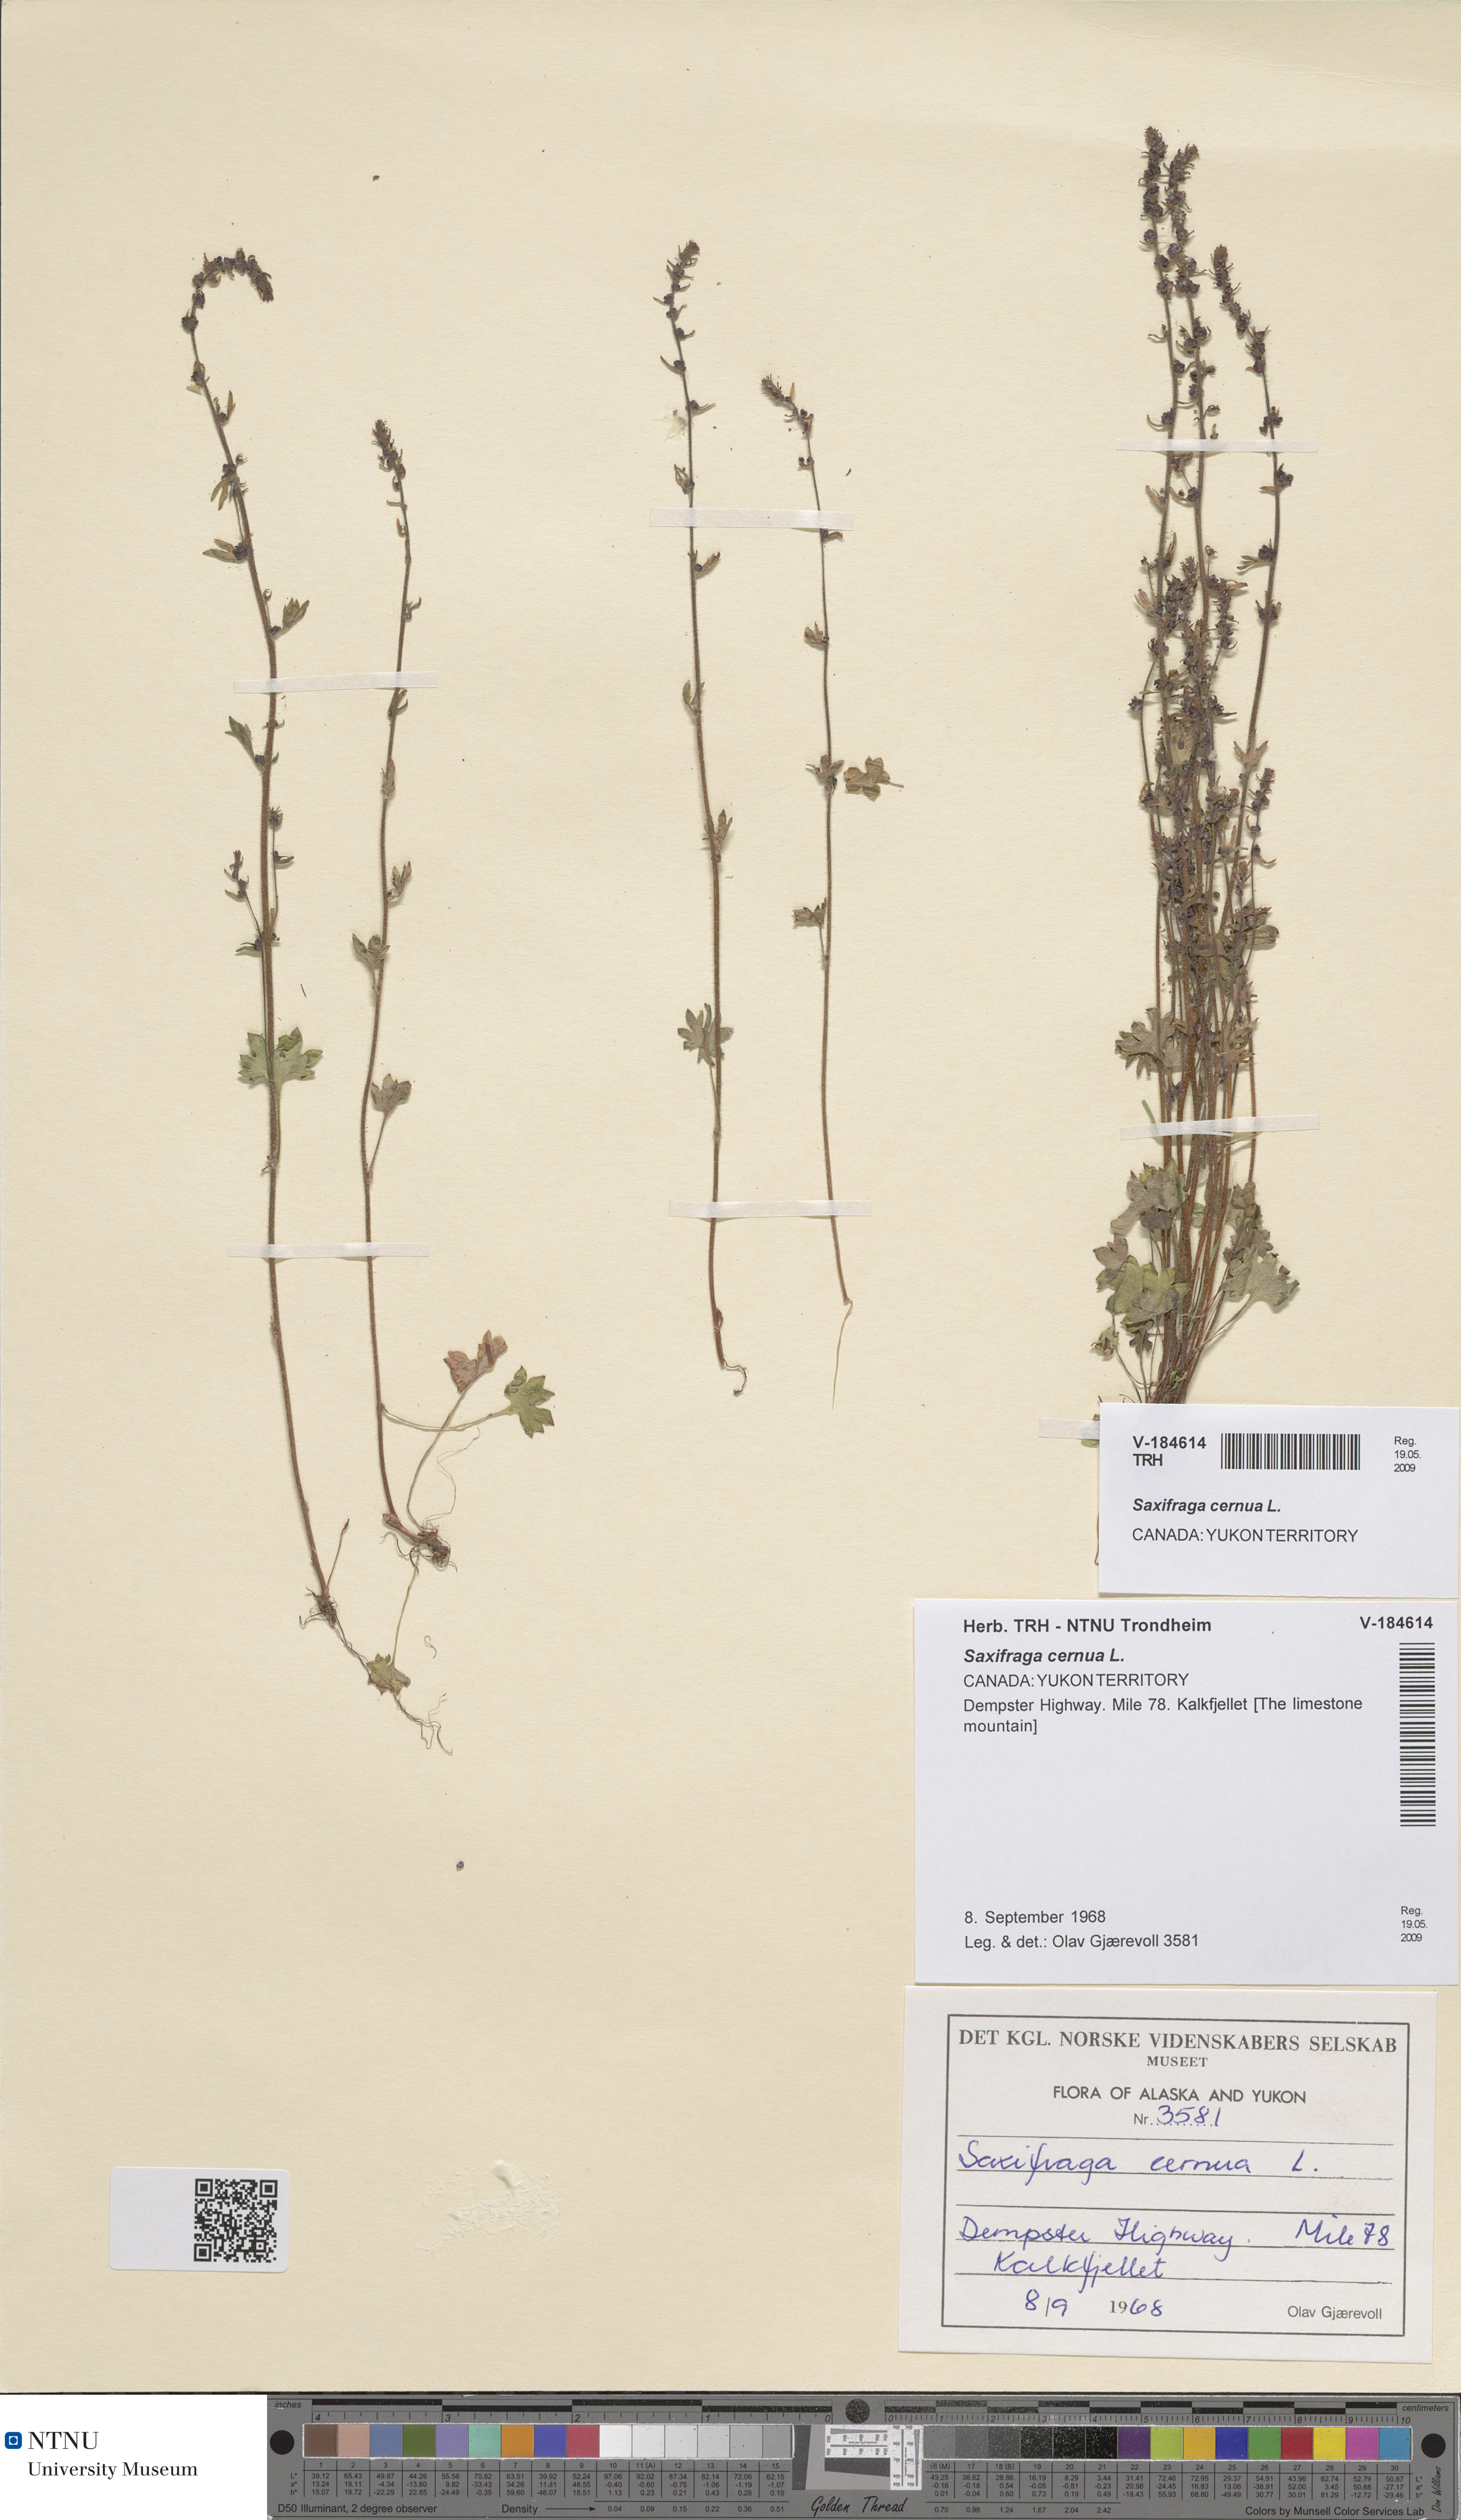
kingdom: Plantae
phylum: Tracheophyta
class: Magnoliopsida
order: Saxifragales
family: Saxifragaceae
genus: Saxifraga
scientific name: Saxifraga cernua
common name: Drooping saxifrage
